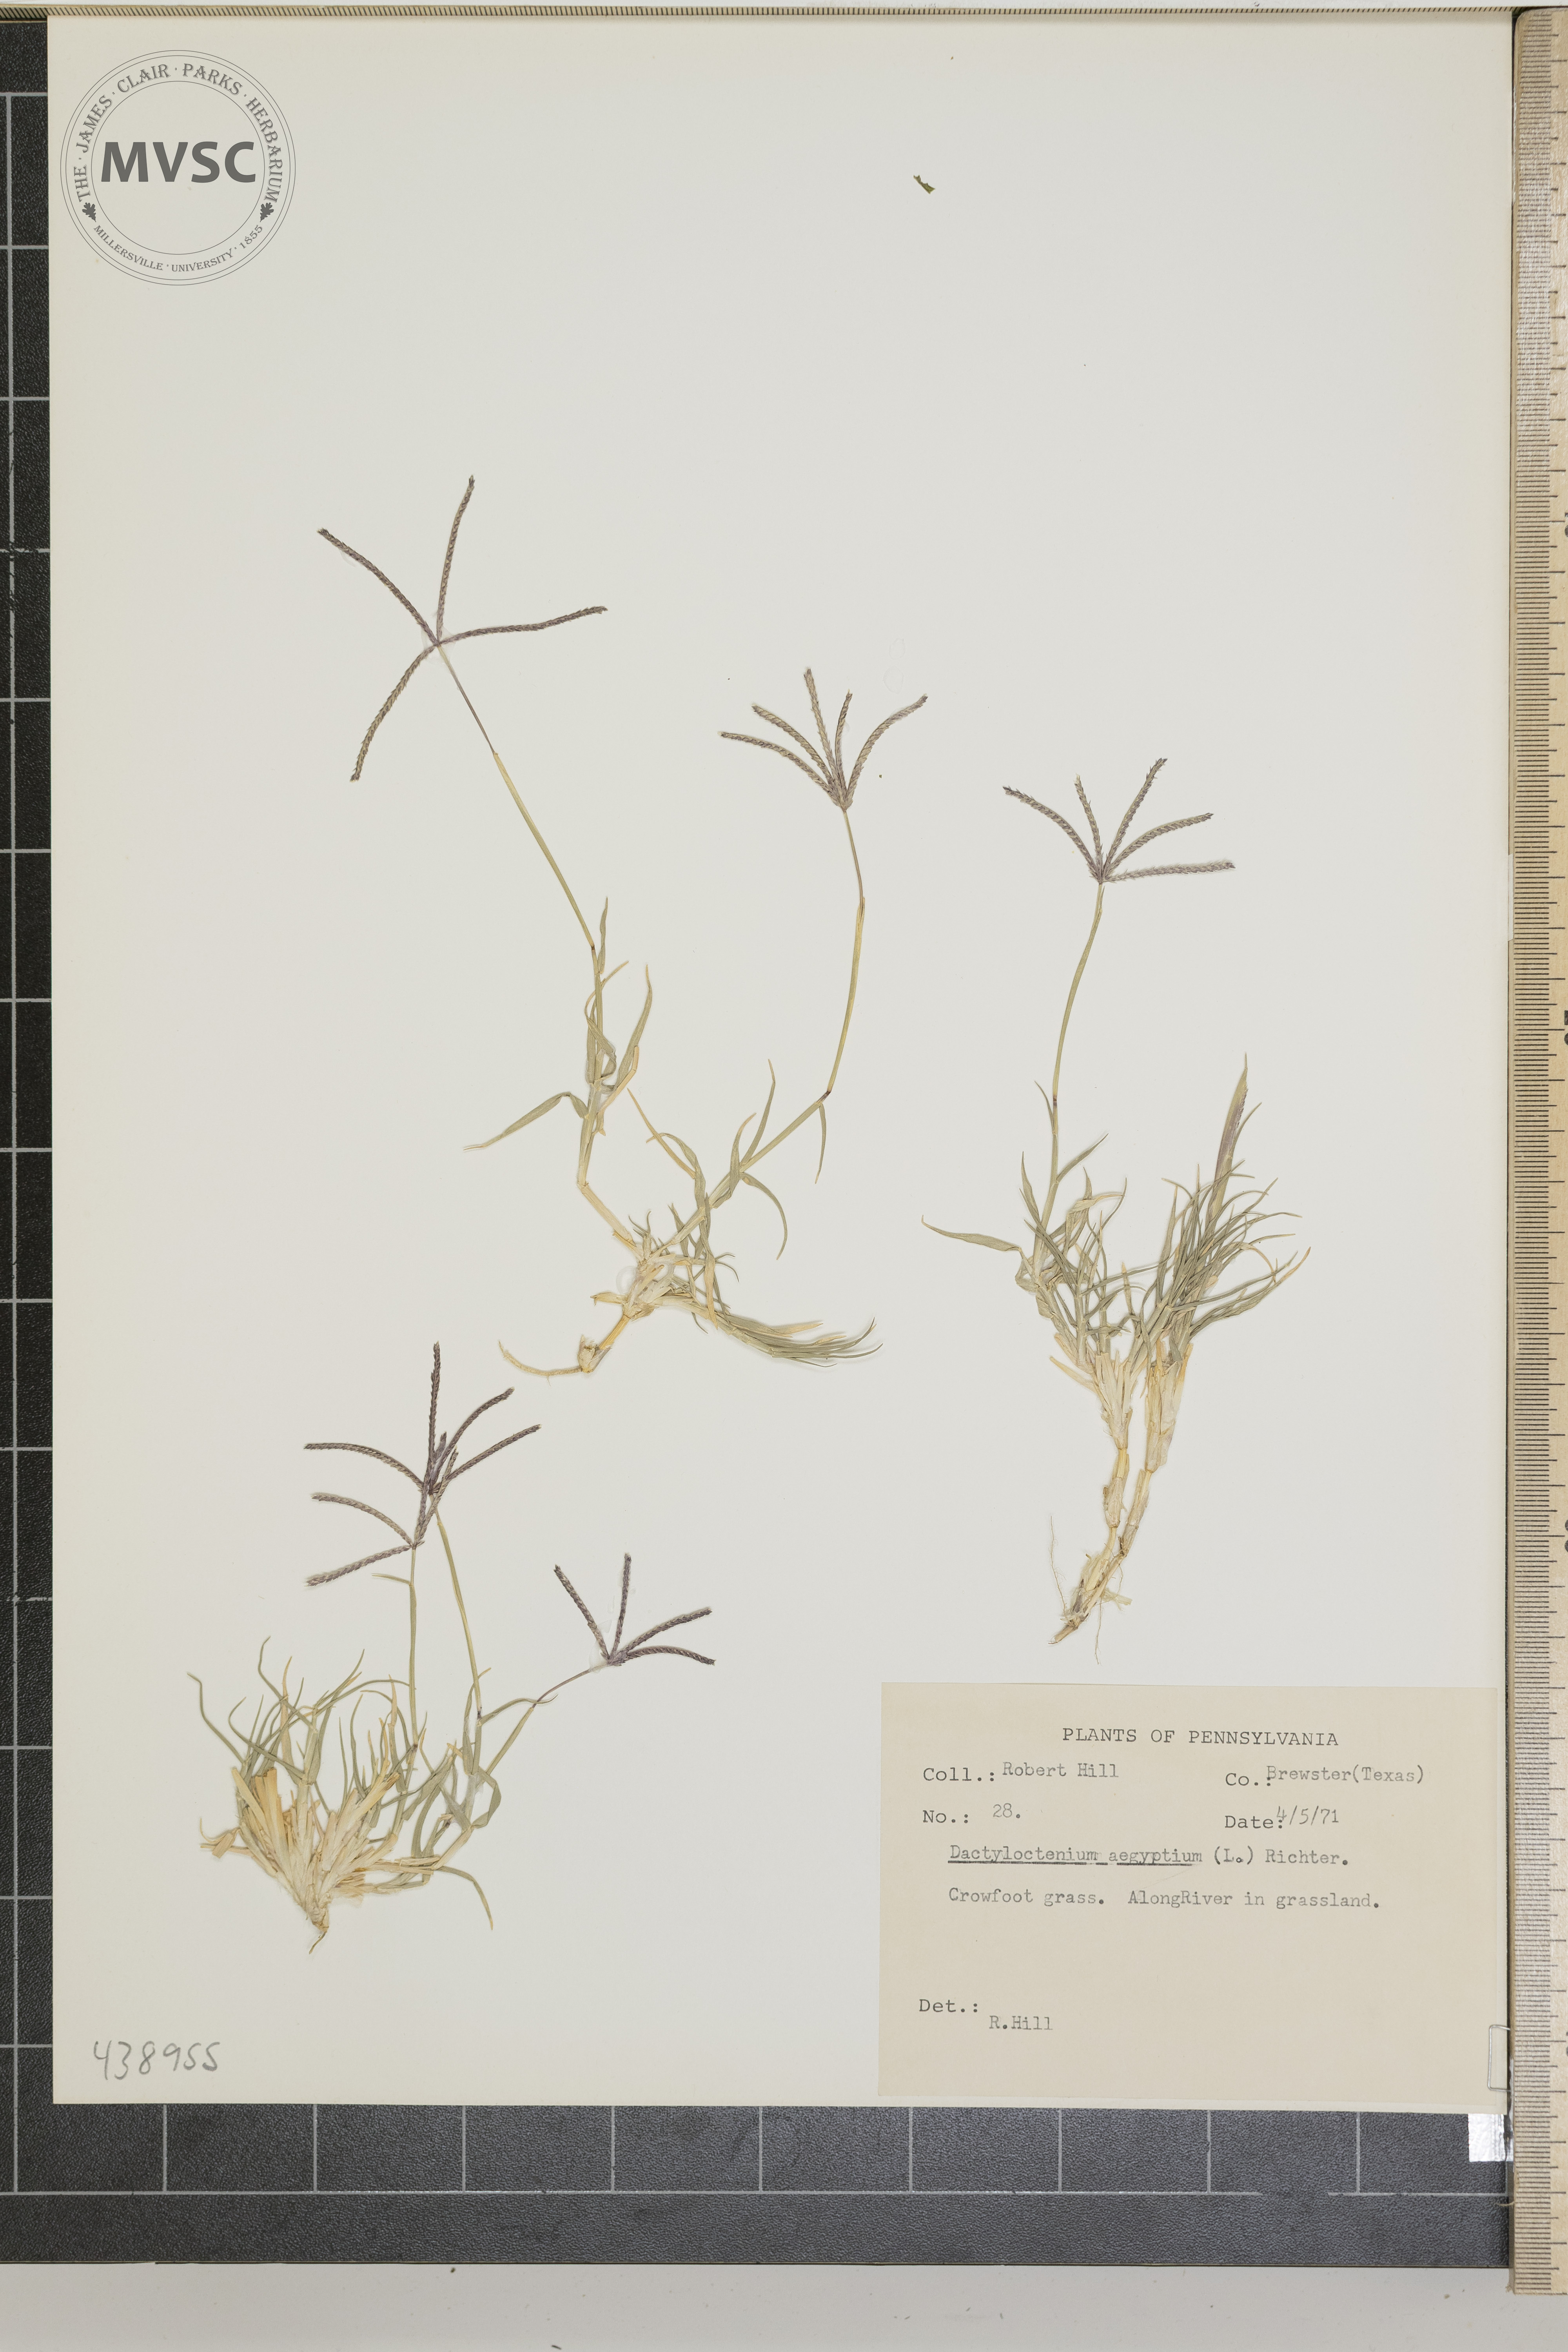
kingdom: Plantae
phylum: Tracheophyta
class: Liliopsida
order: Poales
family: Poaceae
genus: Dactyloctenium
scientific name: Dactyloctenium aegyptium
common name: Crowfoot grass
